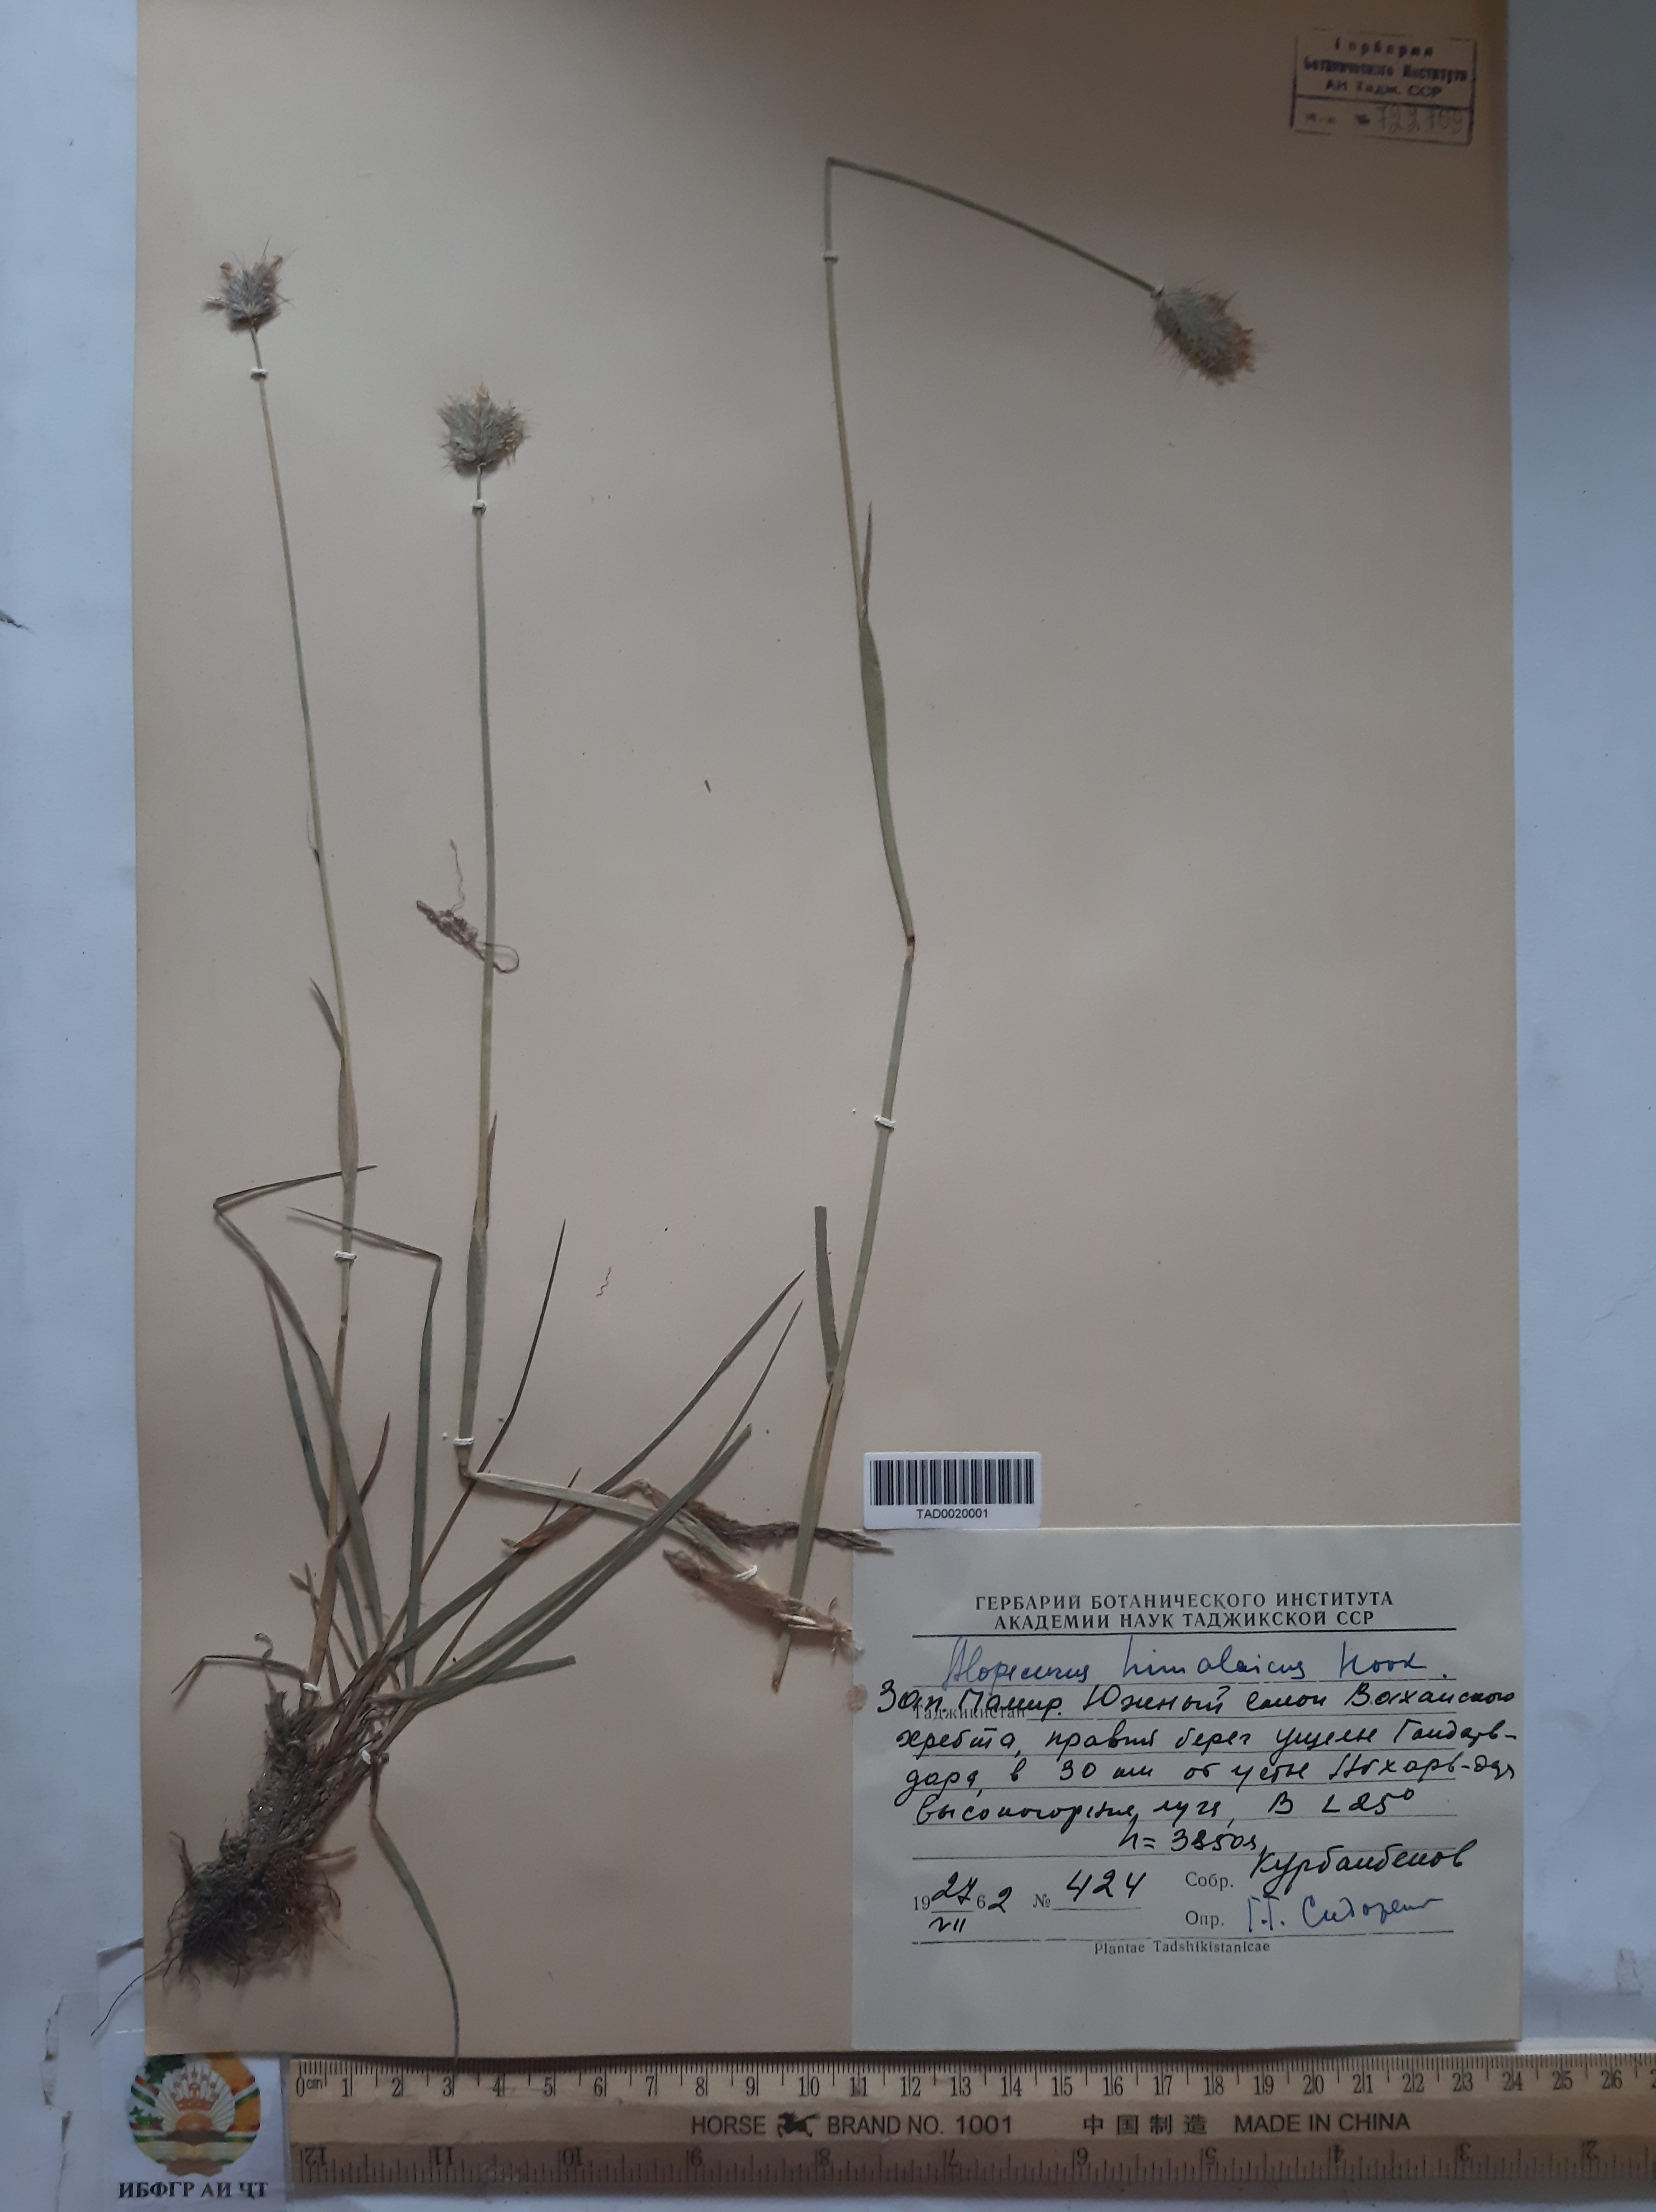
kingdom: Plantae
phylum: Tracheophyta
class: Liliopsida
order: Poales
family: Poaceae
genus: Alopecurus
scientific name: Alopecurus himalaicus
